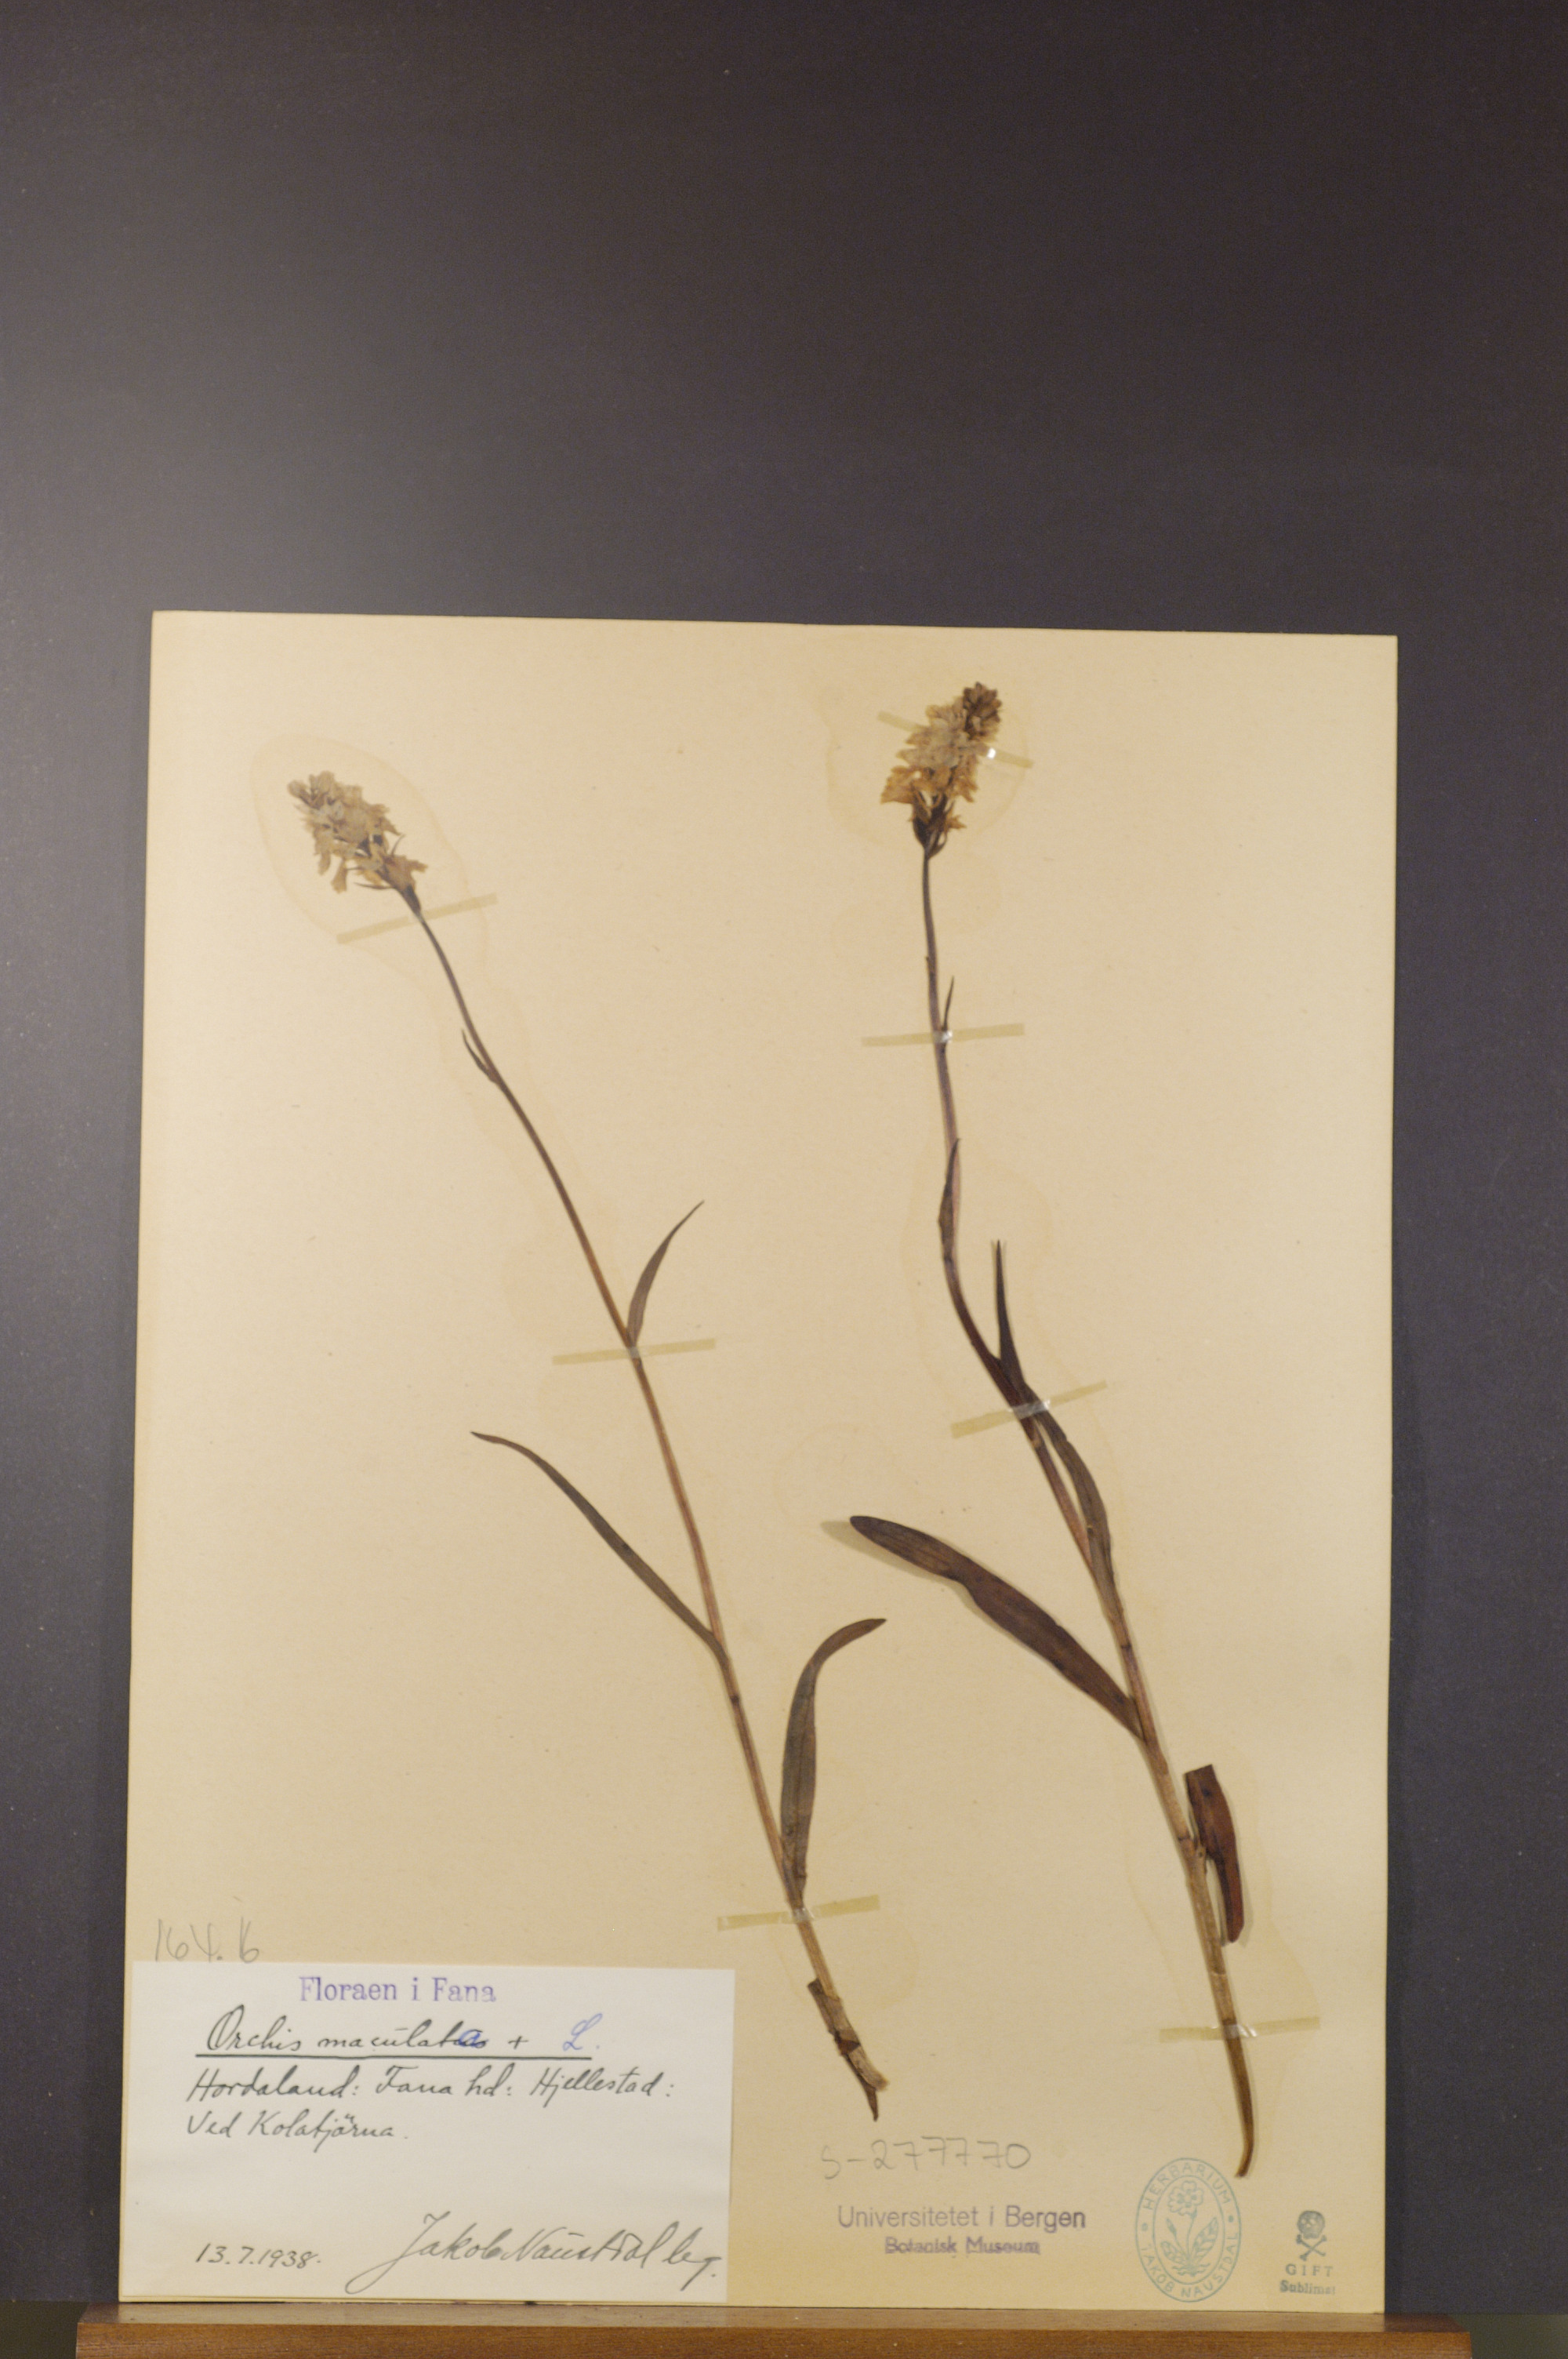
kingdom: Plantae
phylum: Tracheophyta
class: Liliopsida
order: Asparagales
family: Orchidaceae
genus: Dactylorhiza
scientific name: Dactylorhiza maculata
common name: Heath spotted-orchid
